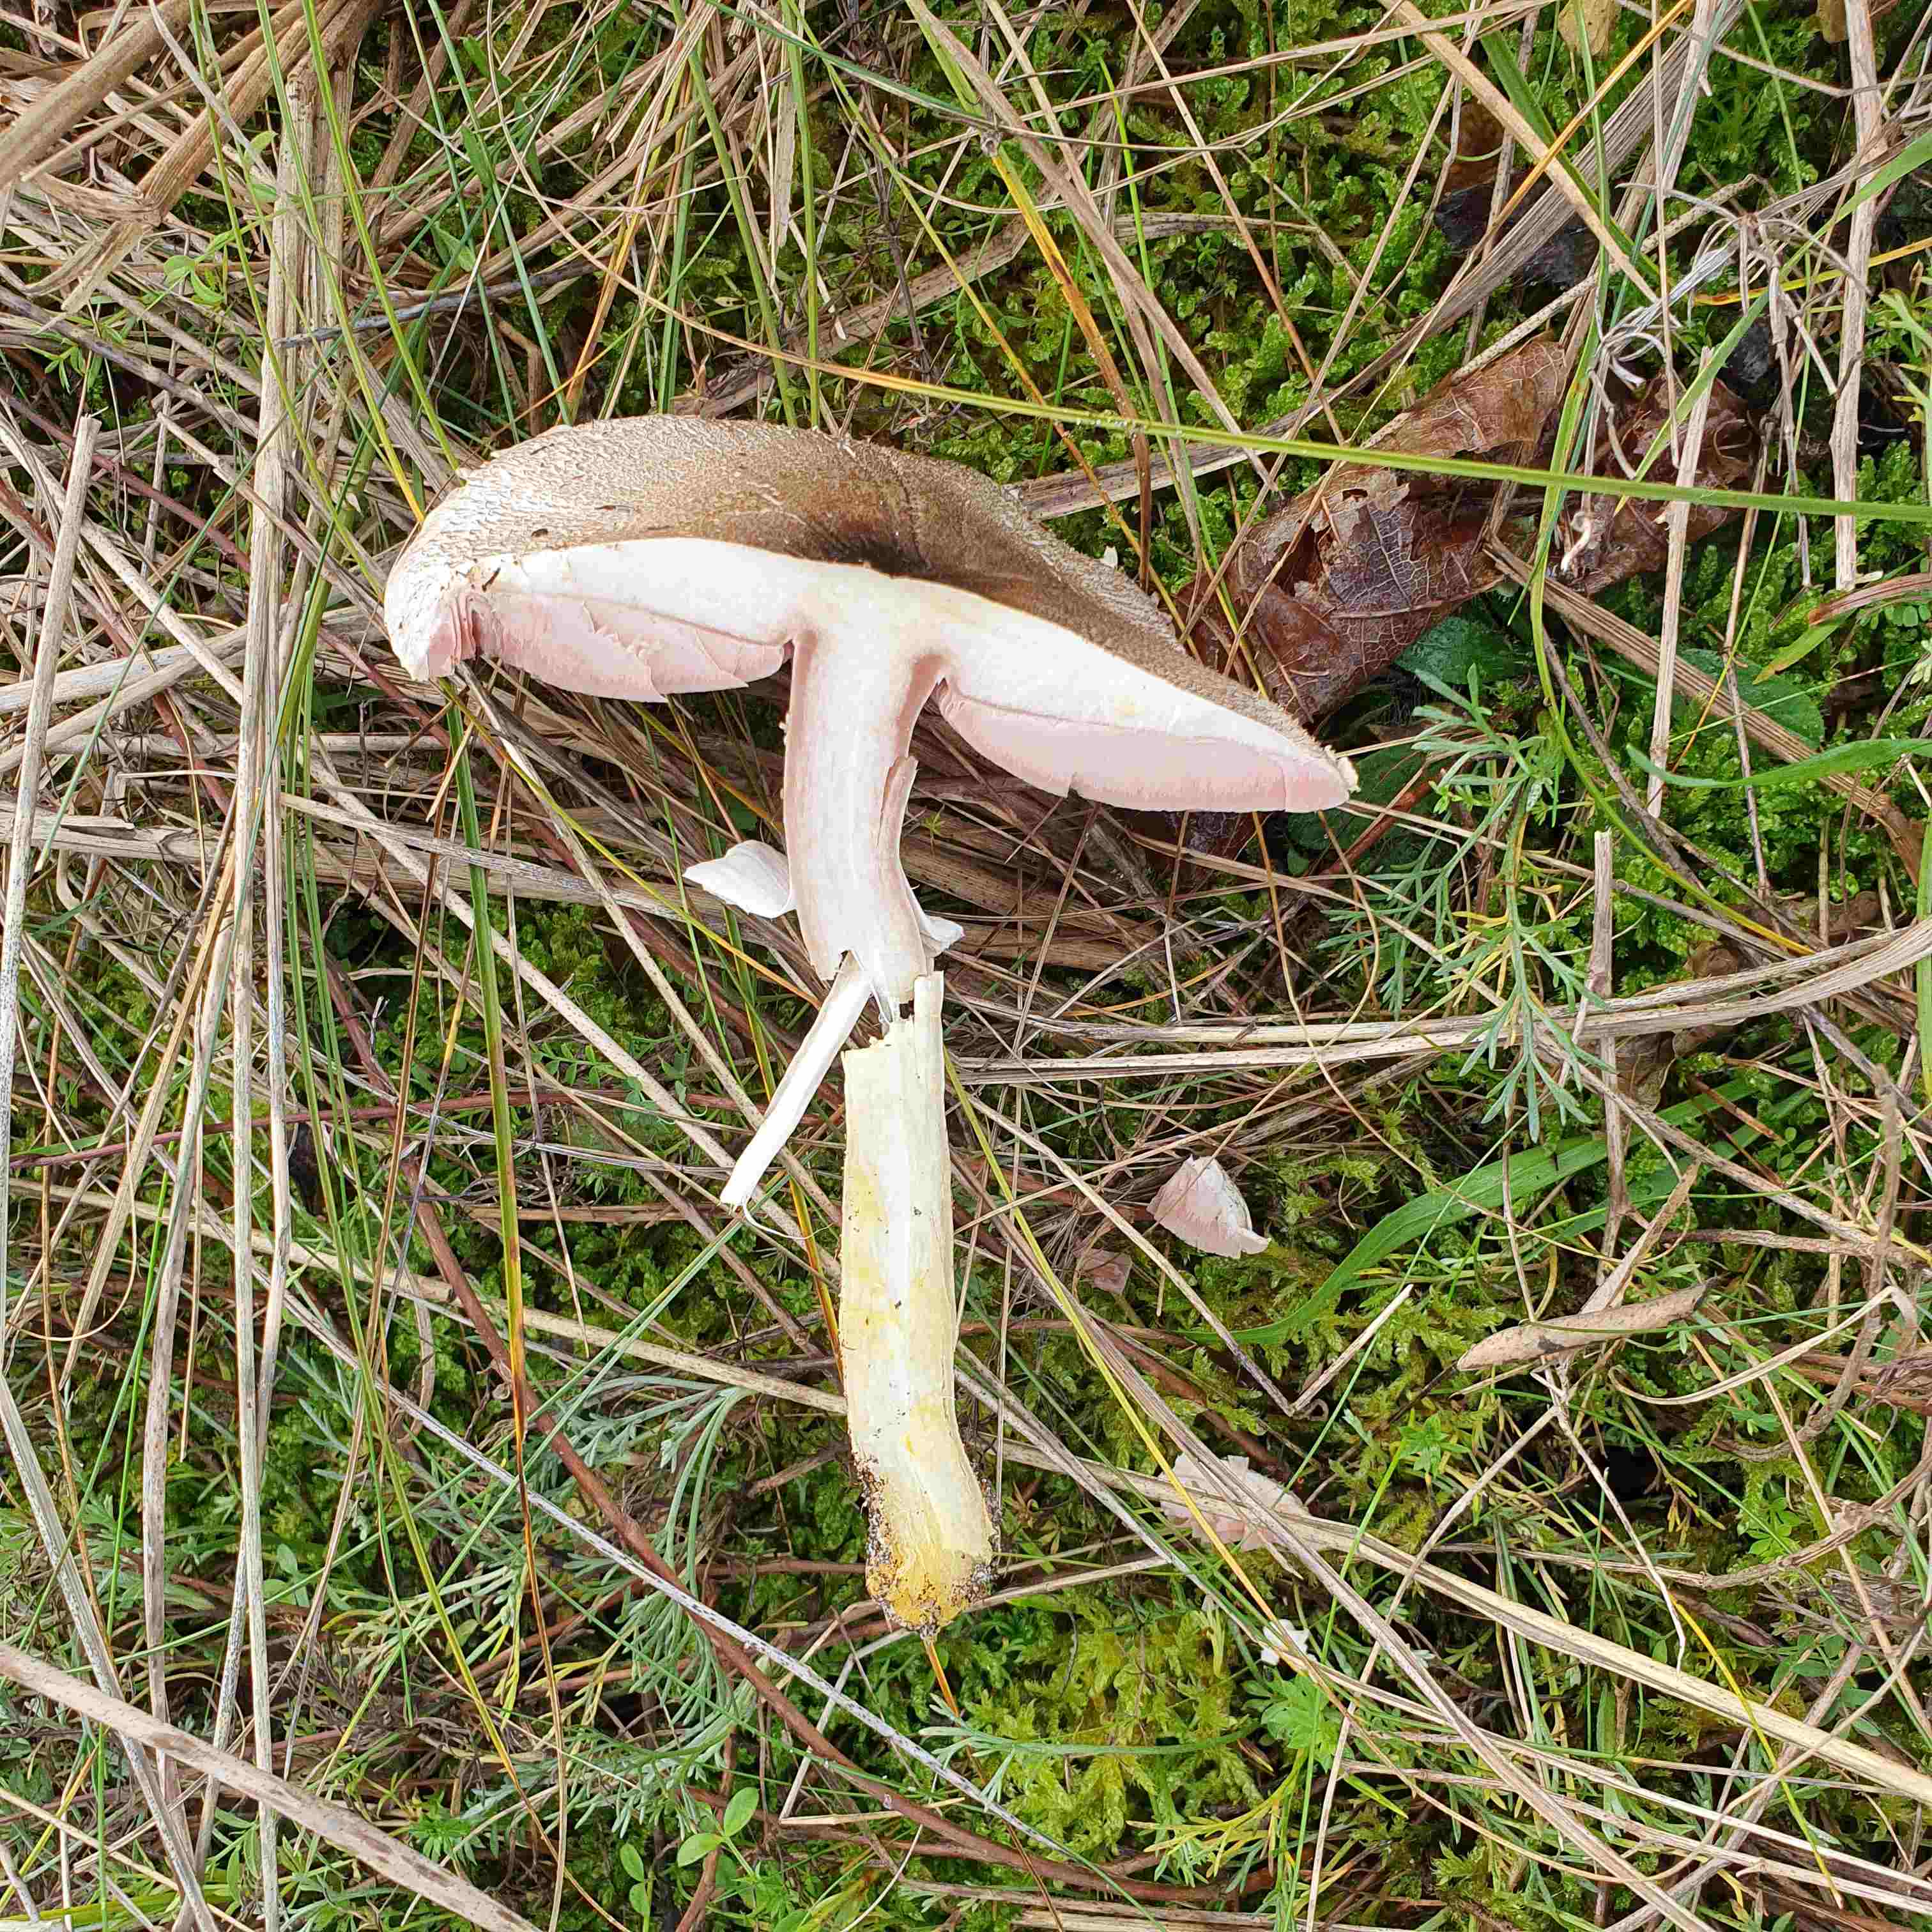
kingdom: Fungi
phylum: Basidiomycota
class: Agaricomycetes
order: Agaricales
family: Agaricaceae
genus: Agaricus
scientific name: Agaricus phaeolepidotus
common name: agerhøne-champignon
